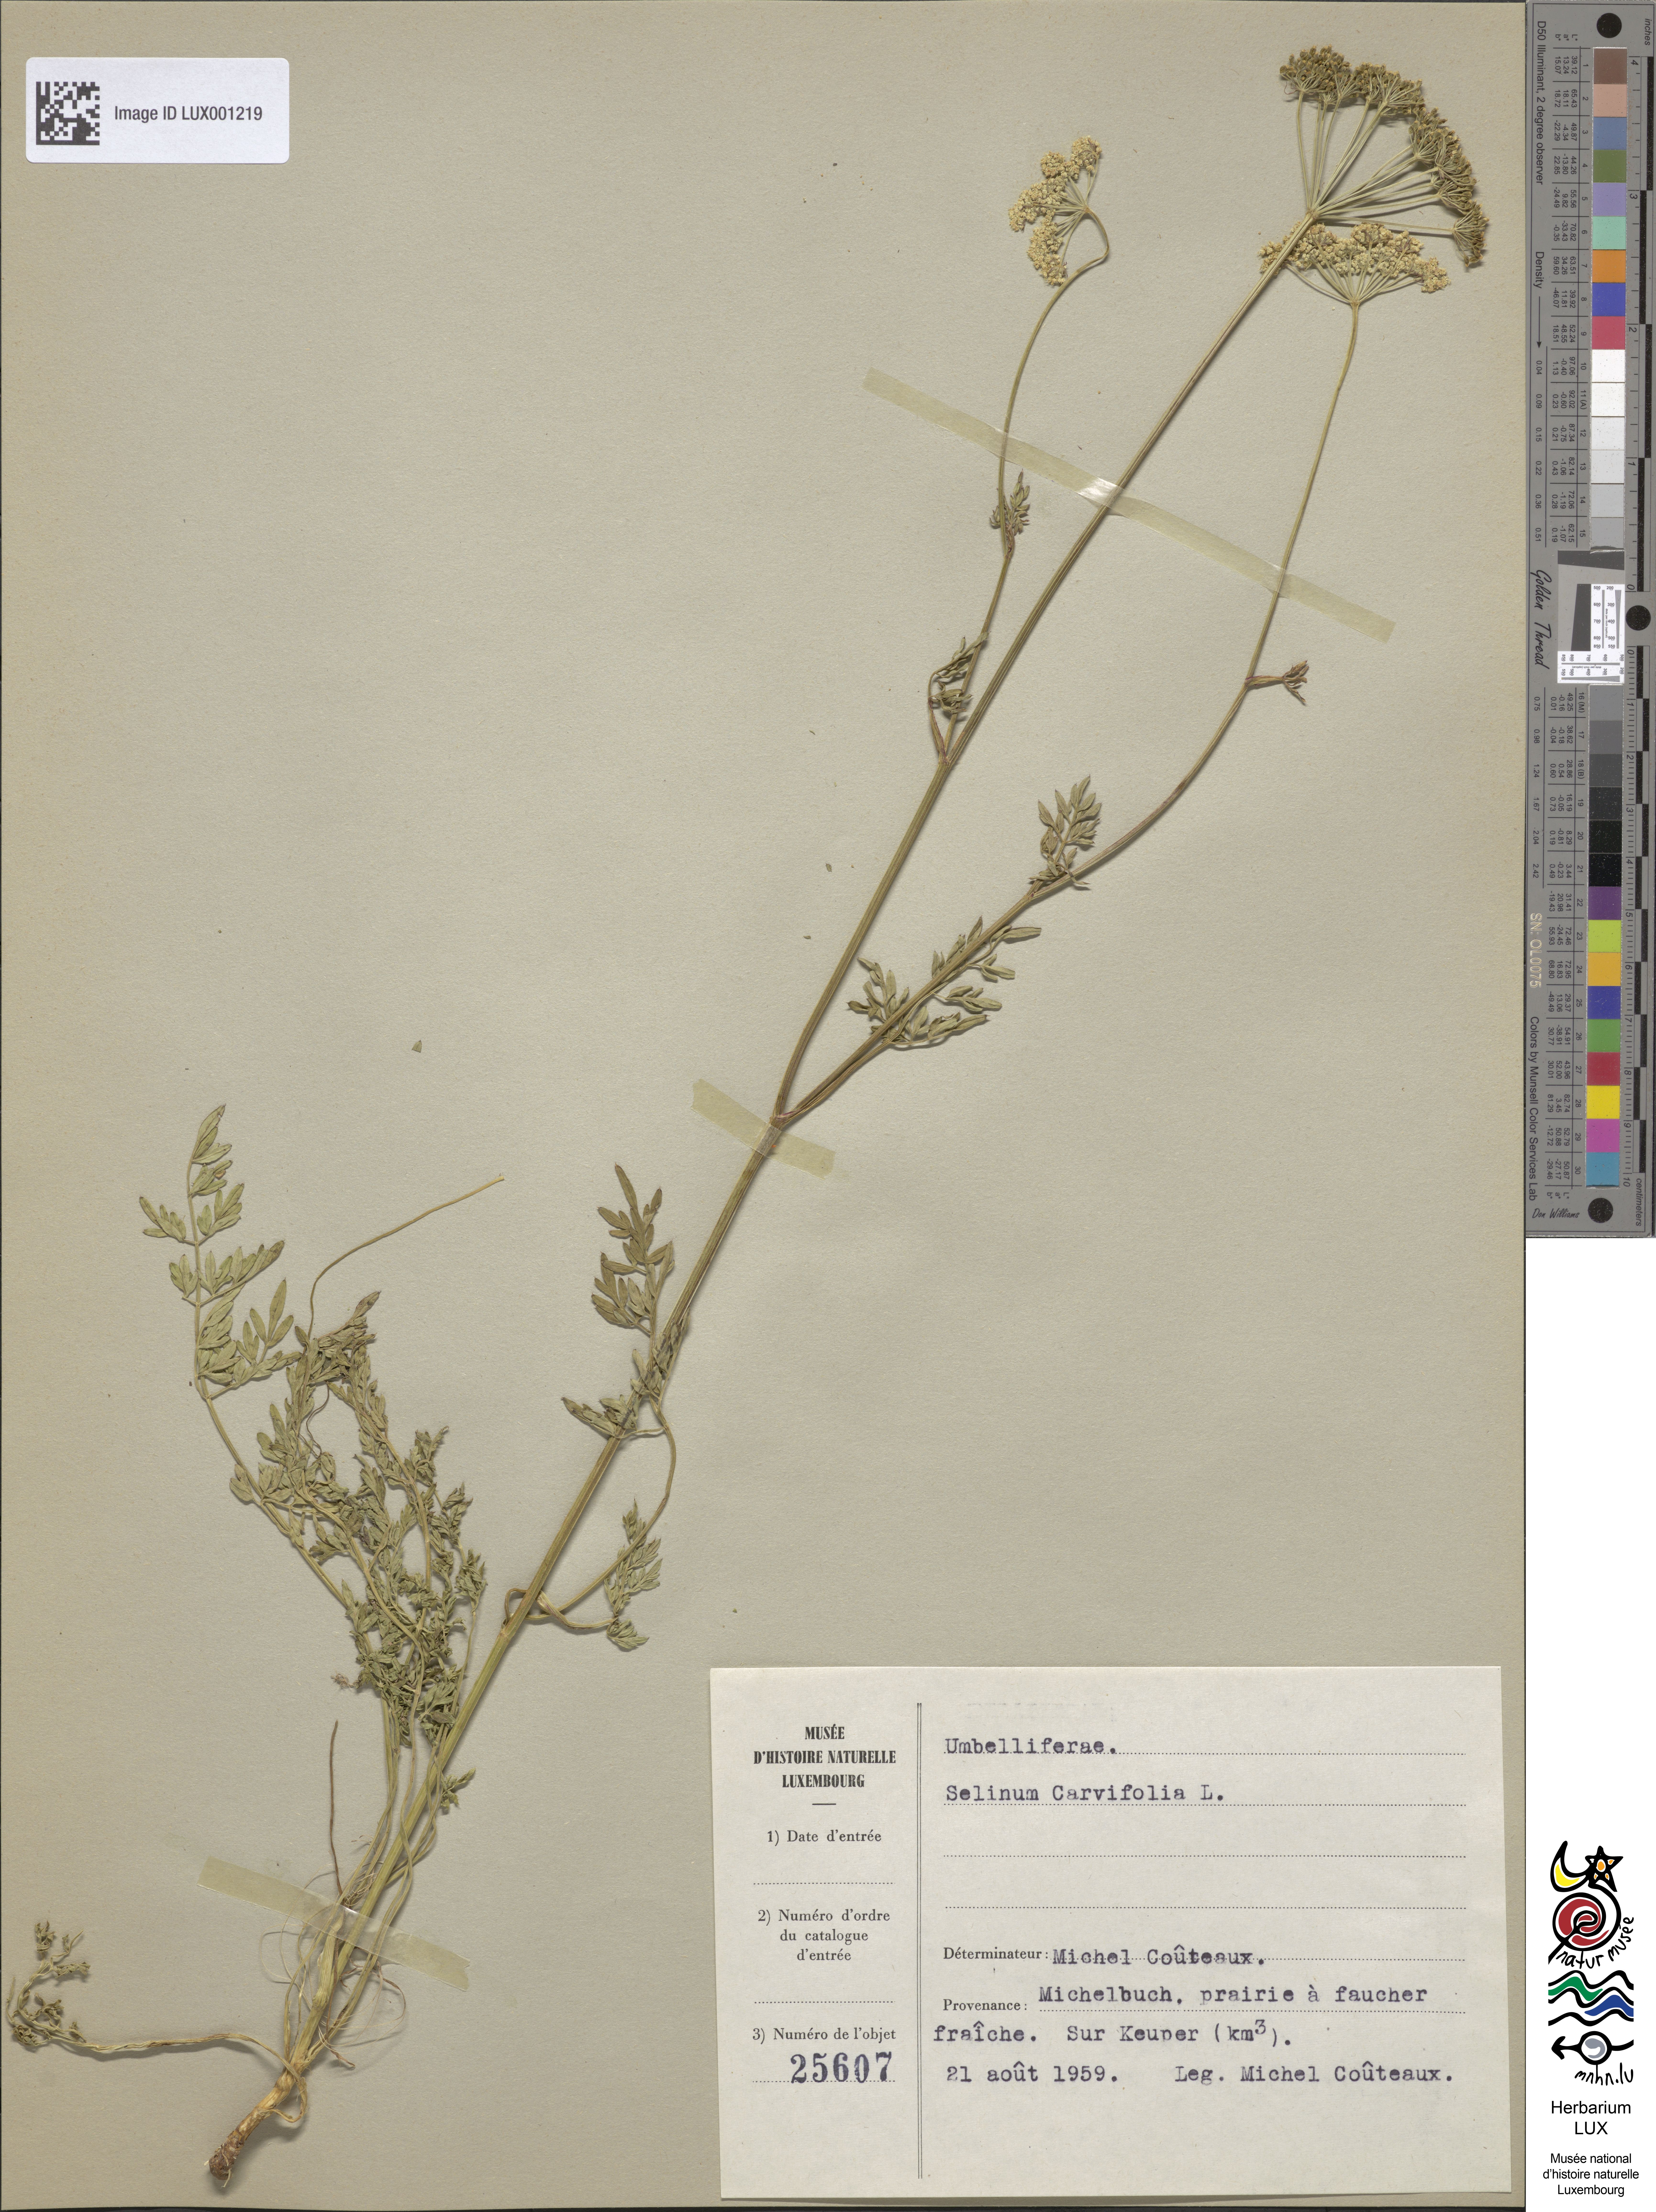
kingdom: Plantae
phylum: Tracheophyta
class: Magnoliopsida
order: Apiales
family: Apiaceae
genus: Selinum
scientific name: Selinum carvifolia
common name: Cambridge milk-parsley
